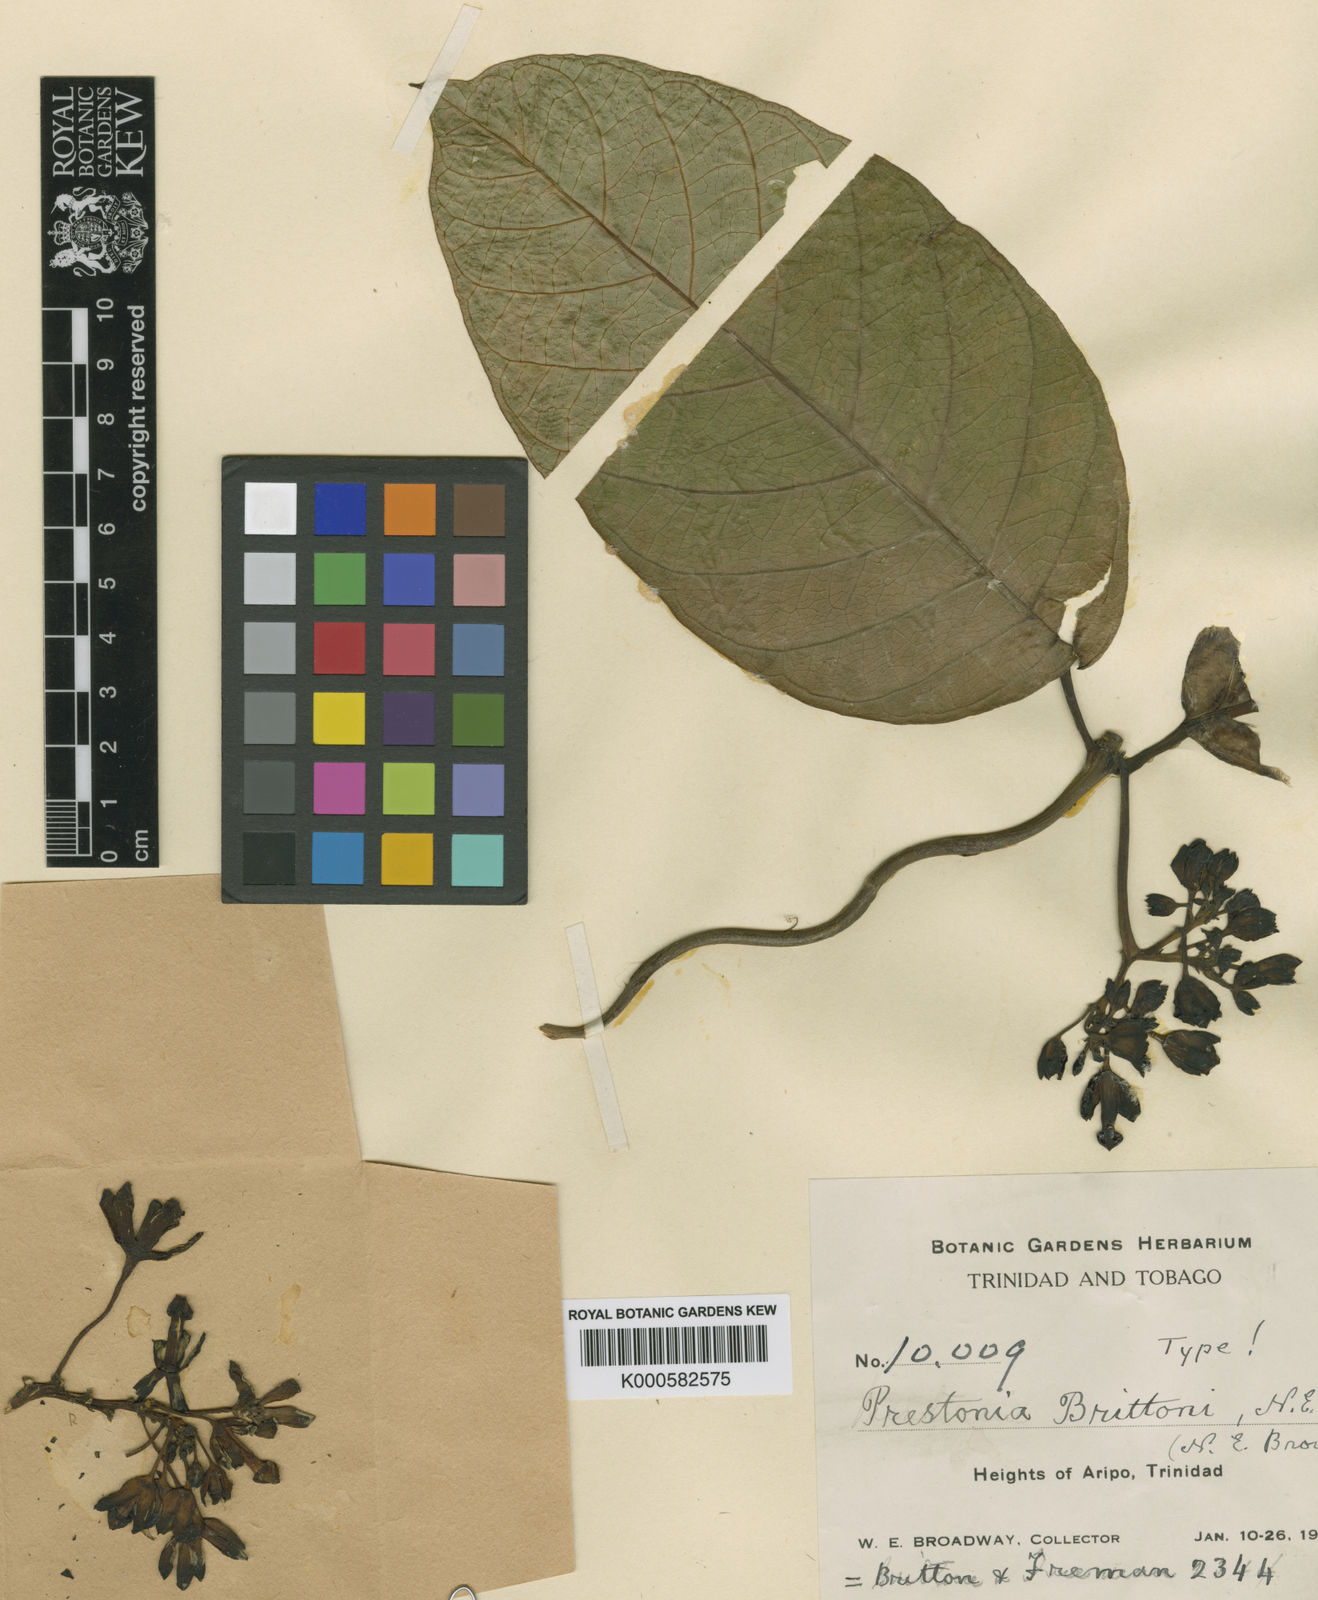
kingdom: Plantae
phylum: Tracheophyta
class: Magnoliopsida
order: Gentianales
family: Apocynaceae
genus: Prestonia
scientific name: Prestonia brittonii
